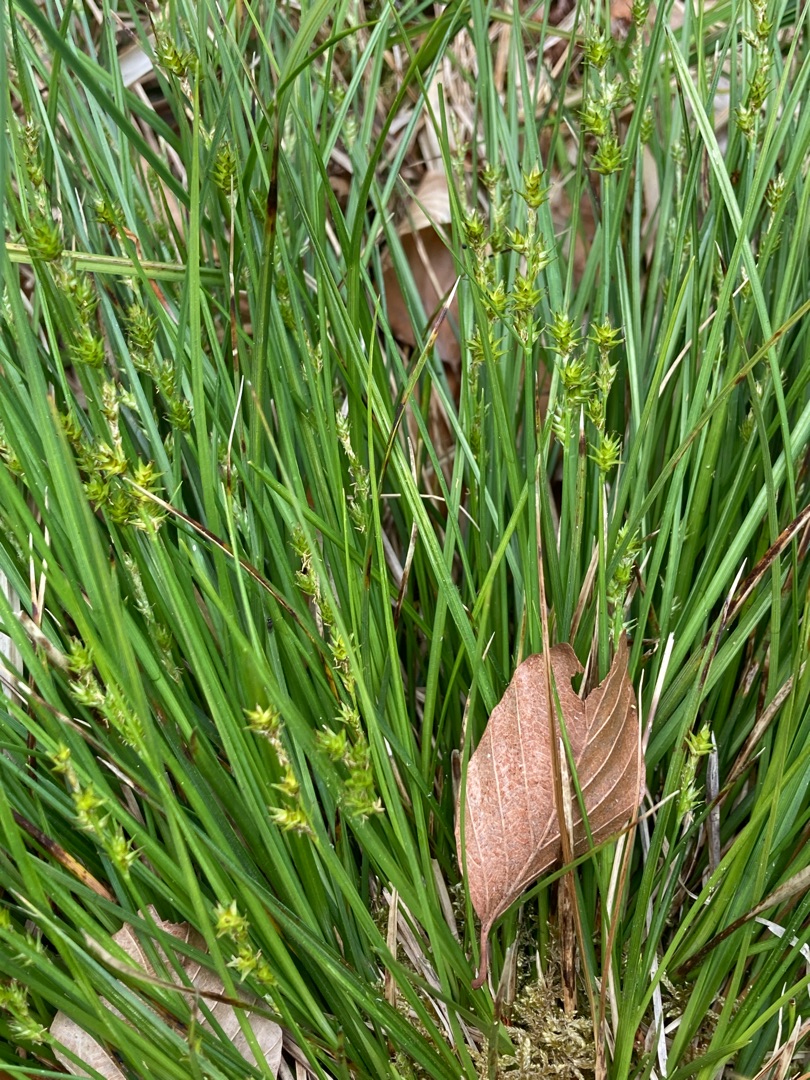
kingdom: Plantae
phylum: Tracheophyta
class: Liliopsida
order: Poales
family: Cyperaceae
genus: Carex
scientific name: Carex echinata
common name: Stjerne-star
